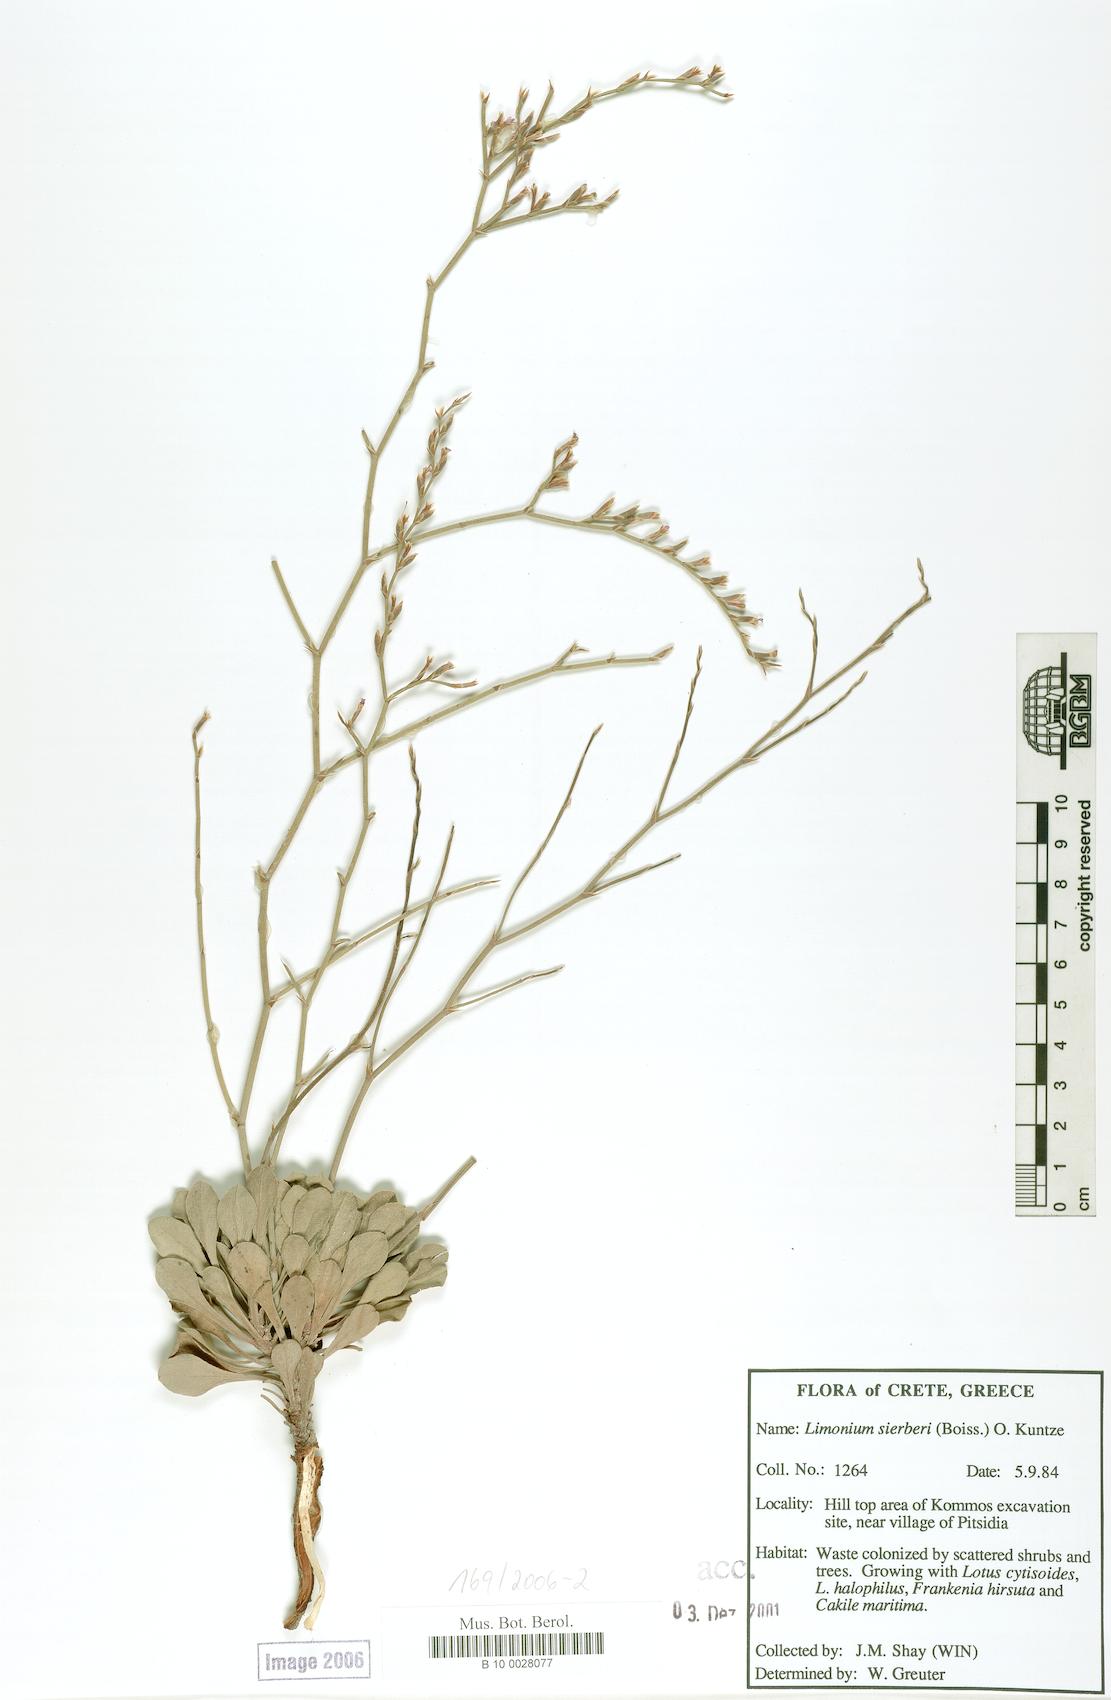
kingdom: Plantae
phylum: Tracheophyta
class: Magnoliopsida
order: Caryophyllales
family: Plumbaginaceae
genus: Limonium
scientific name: Limonium sieberi
